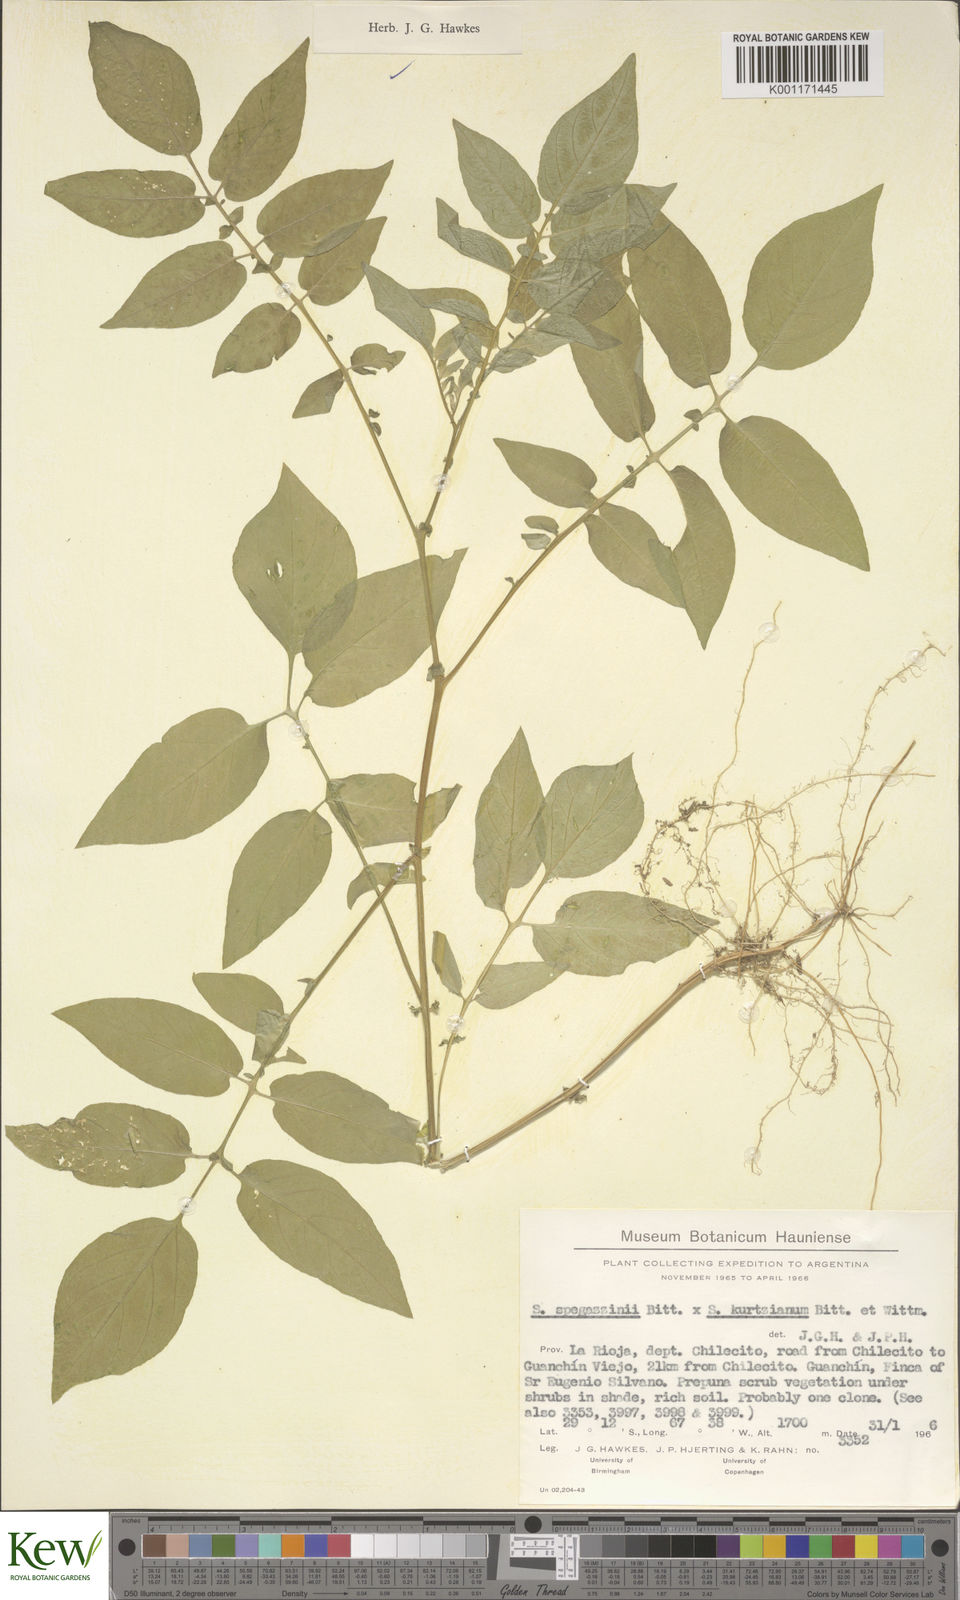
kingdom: Plantae
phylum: Tracheophyta
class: Magnoliopsida
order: Solanales
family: Solanaceae
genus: Solanum
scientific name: Solanum brevicaule
